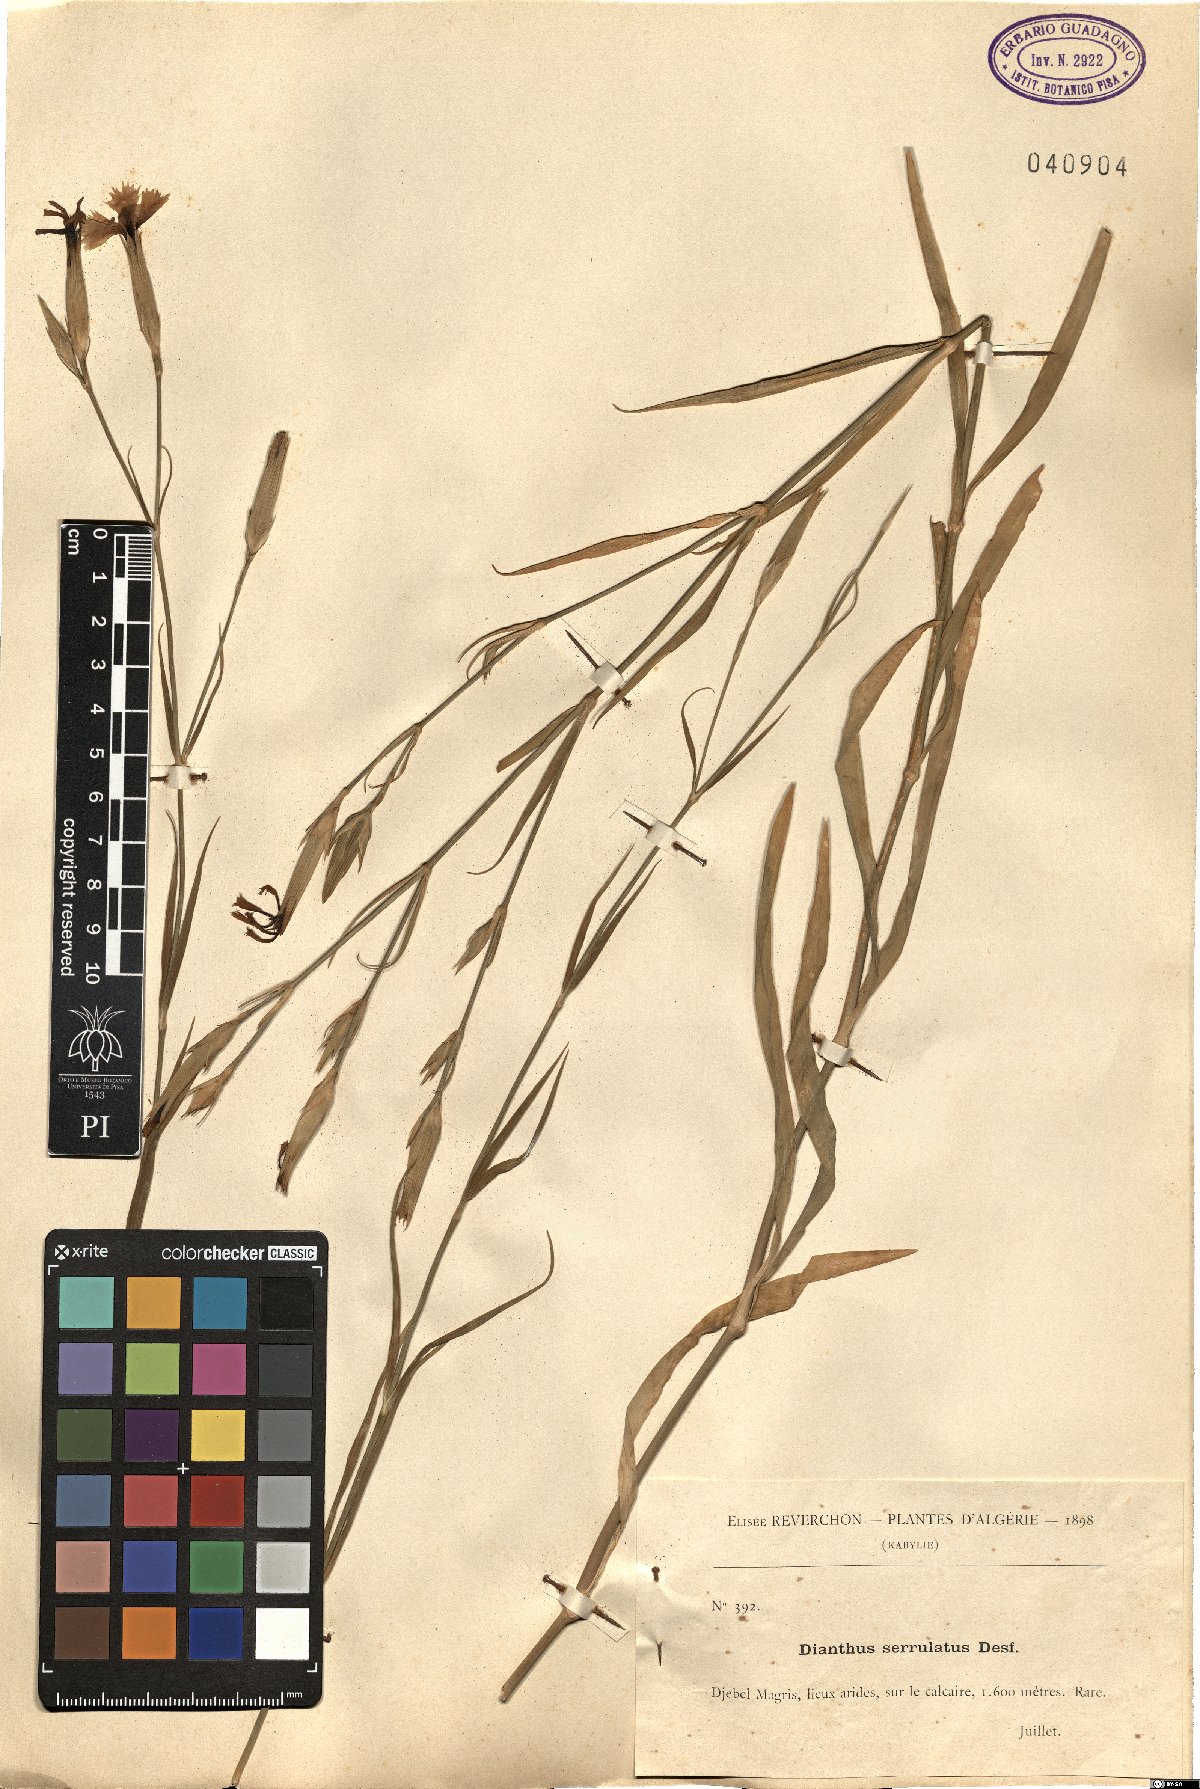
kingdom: Plantae
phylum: Tracheophyta
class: Magnoliopsida
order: Caryophyllales
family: Caryophyllaceae
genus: Dianthus
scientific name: Dianthus serrulatus
